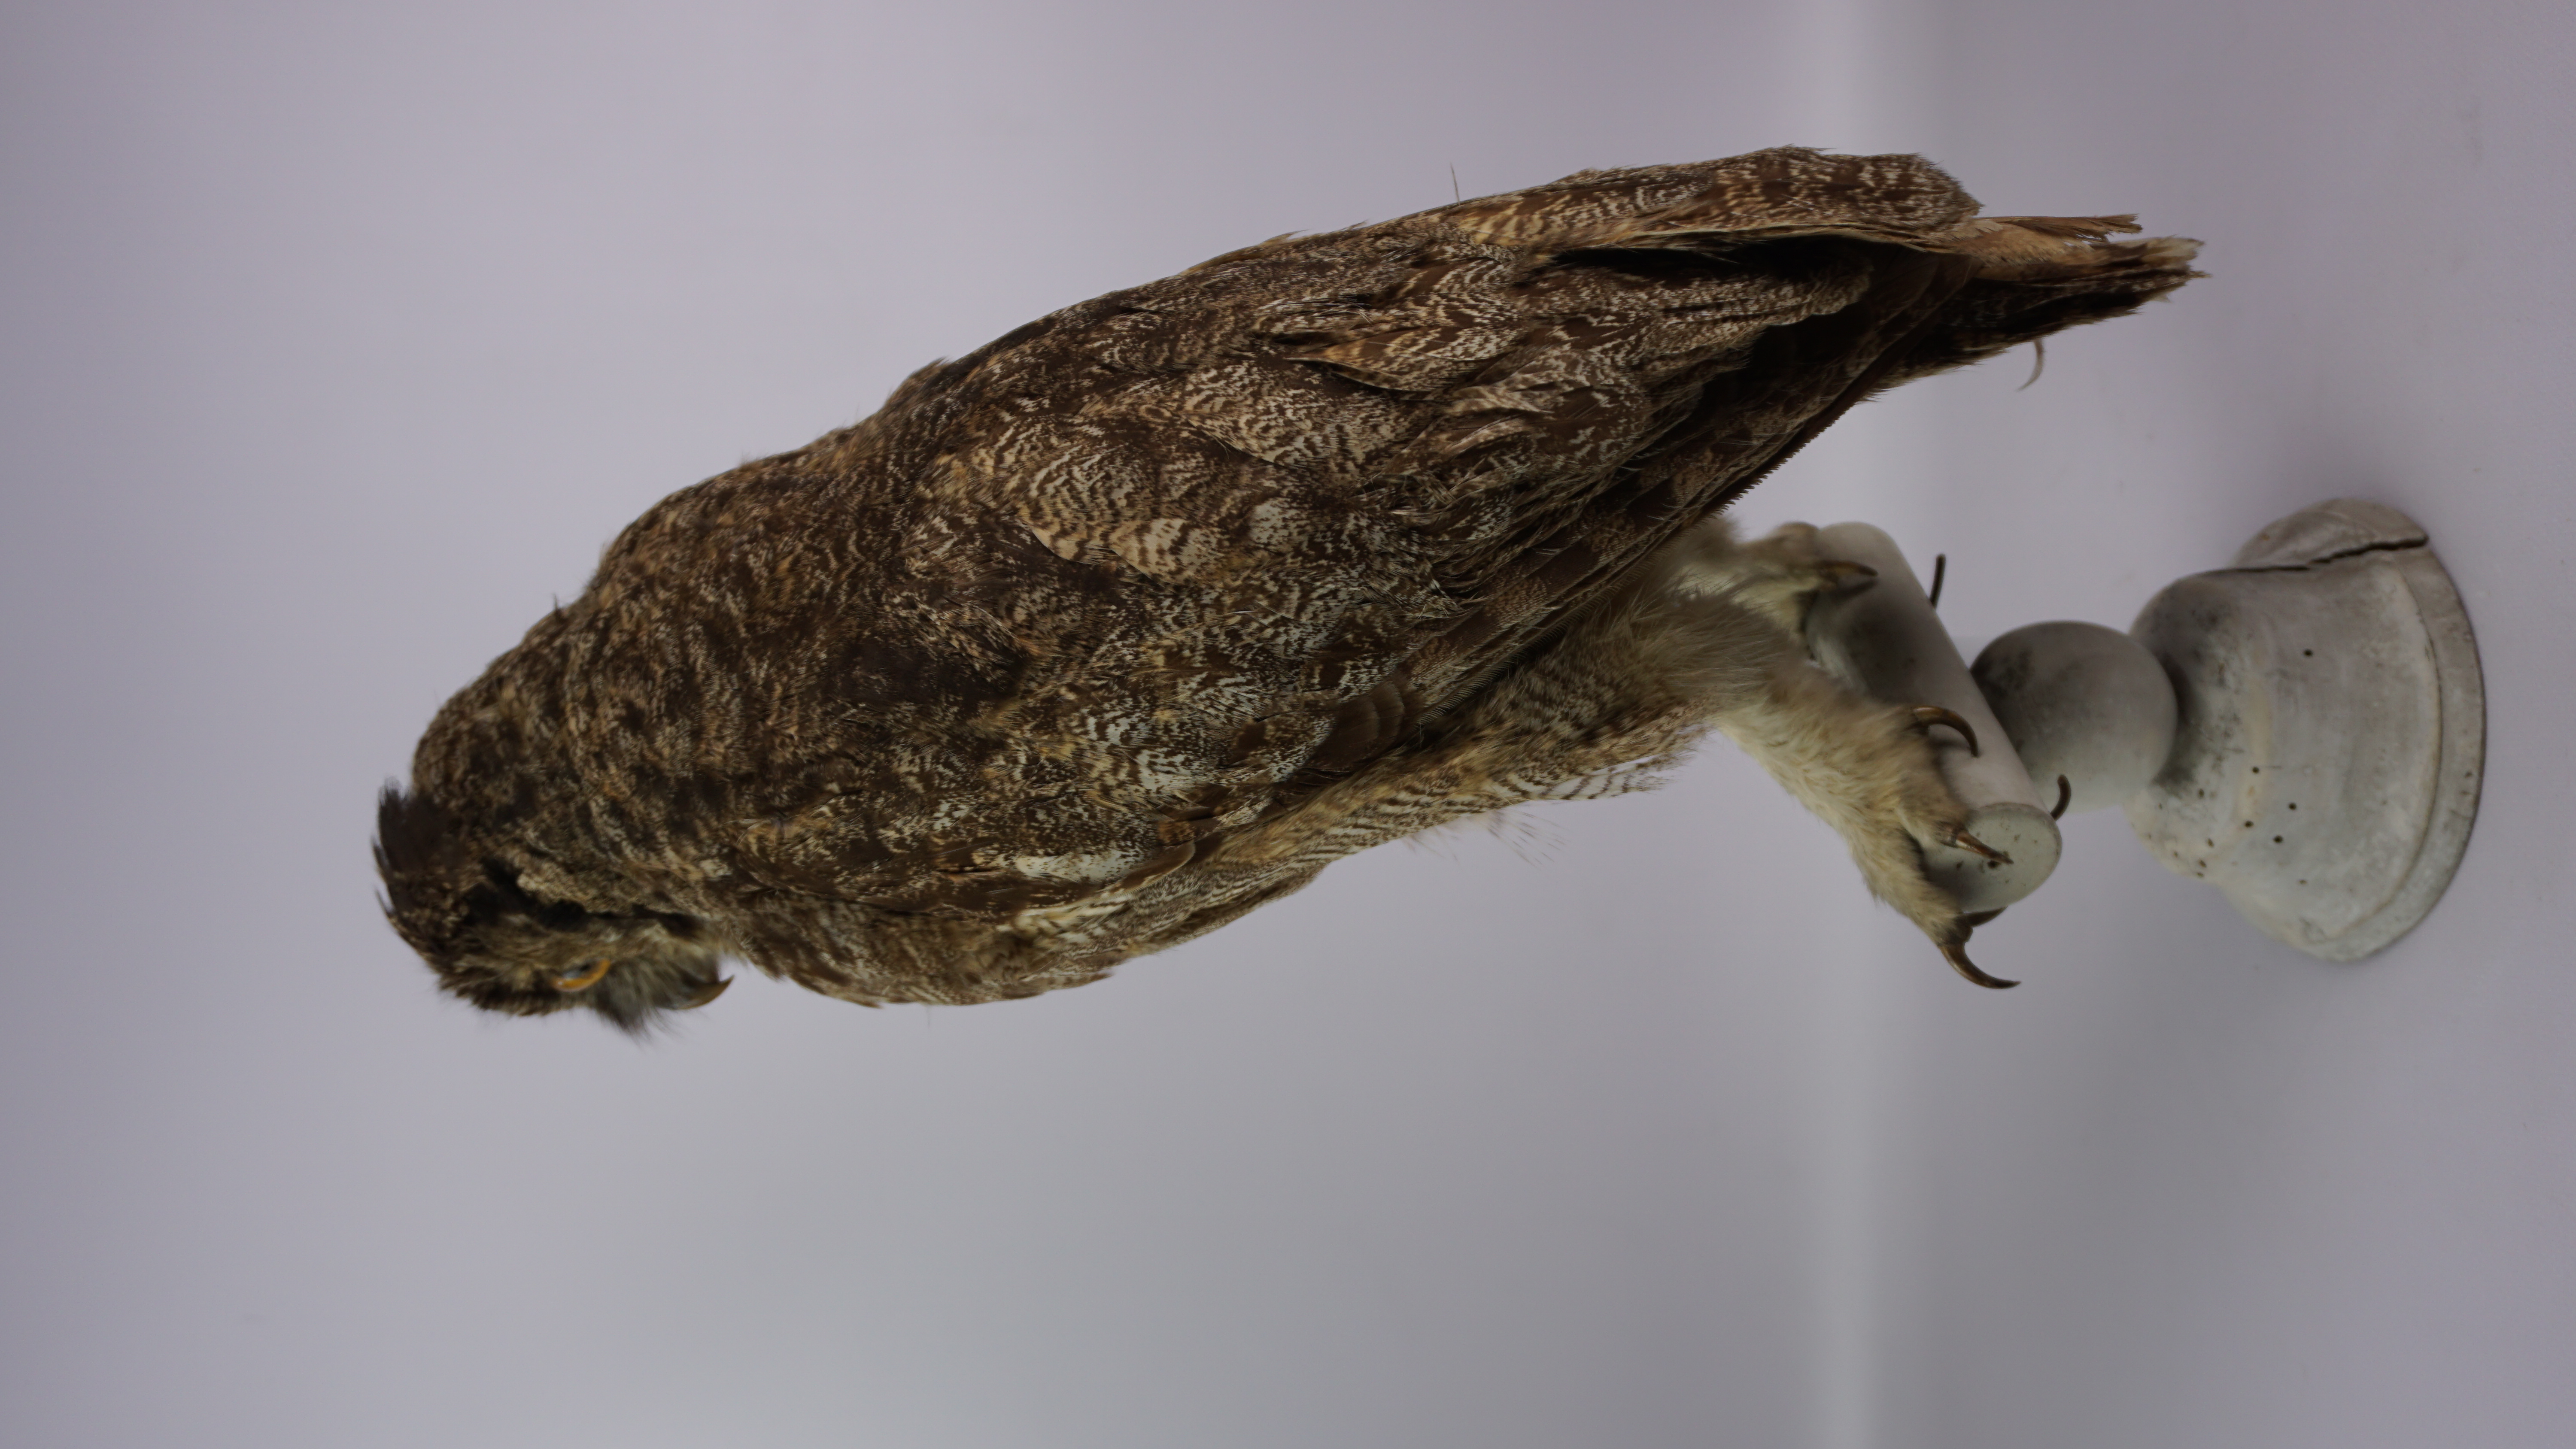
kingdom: Animalia
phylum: Chordata
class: Aves
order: Strigiformes
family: Strigidae
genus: Bubo
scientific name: Bubo virginianus
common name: Great horned owl
